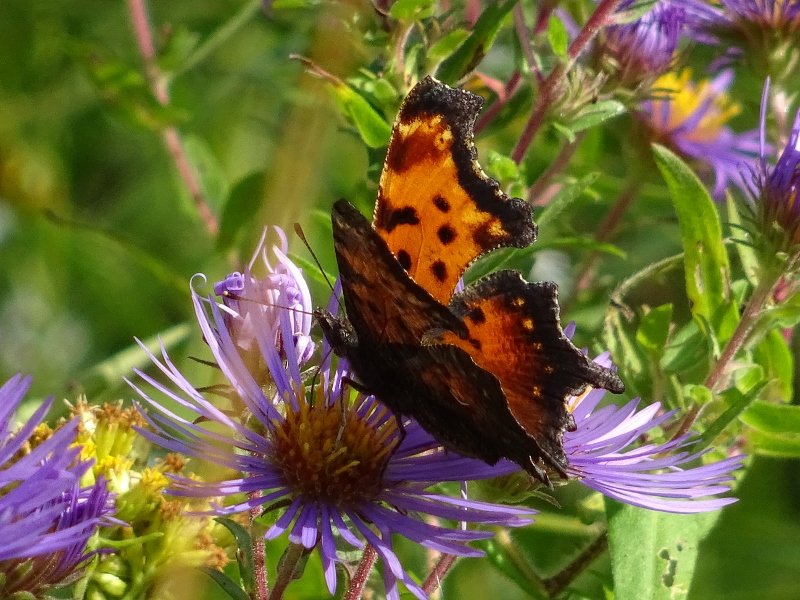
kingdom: Animalia
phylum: Arthropoda
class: Insecta
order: Lepidoptera
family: Nymphalidae
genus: Polygonia
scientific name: Polygonia progne
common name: Gray Comma
